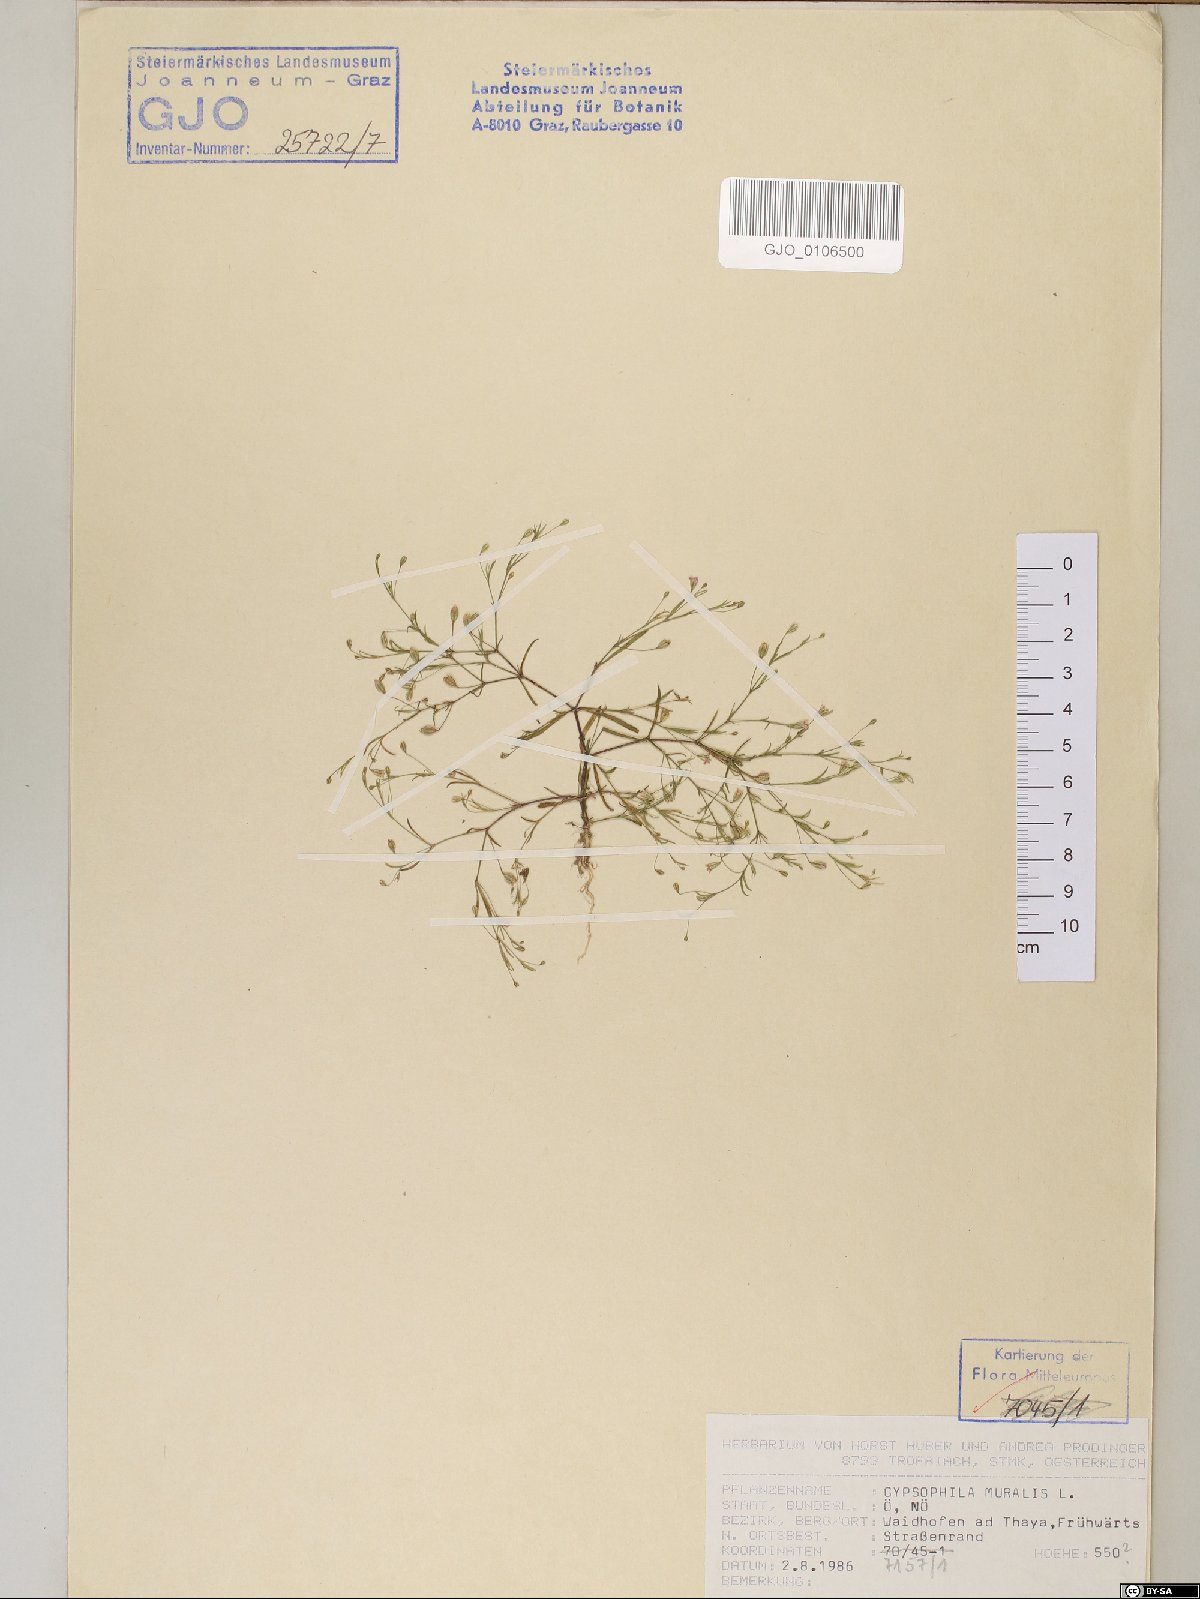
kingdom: Plantae
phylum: Tracheophyta
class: Magnoliopsida
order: Caryophyllales
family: Caryophyllaceae
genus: Psammophiliella
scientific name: Psammophiliella muralis
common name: Cushion baby's-breath
